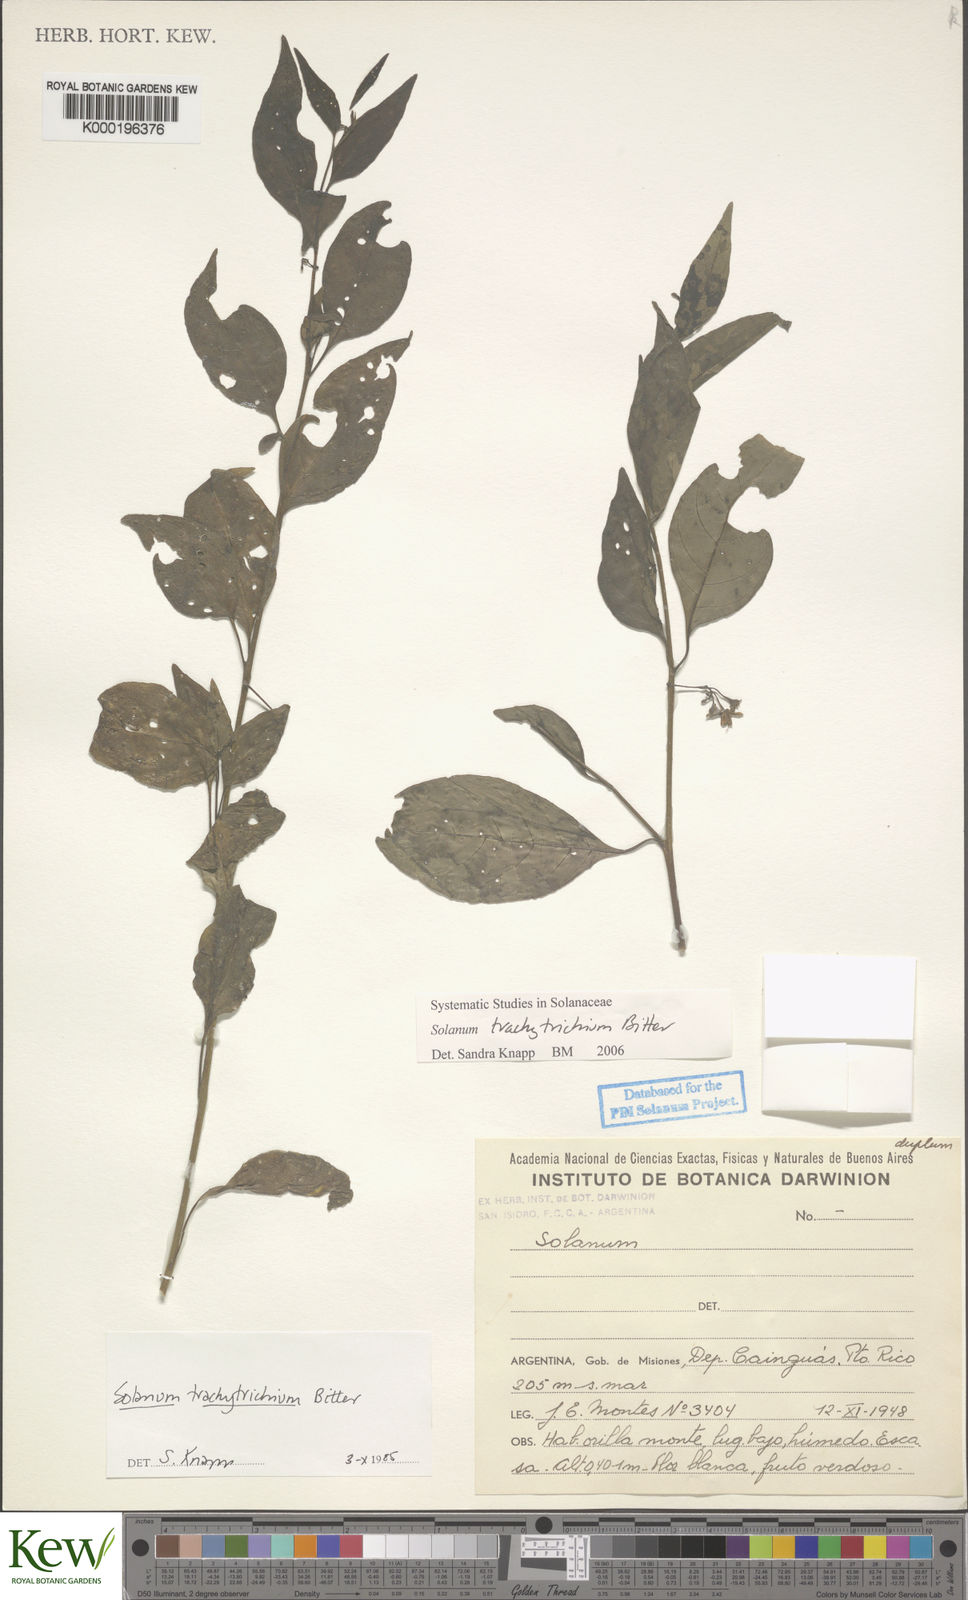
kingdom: Plantae
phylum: Tracheophyta
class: Magnoliopsida
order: Solanales
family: Solanaceae
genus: Solanum
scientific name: Solanum trachytrichium
